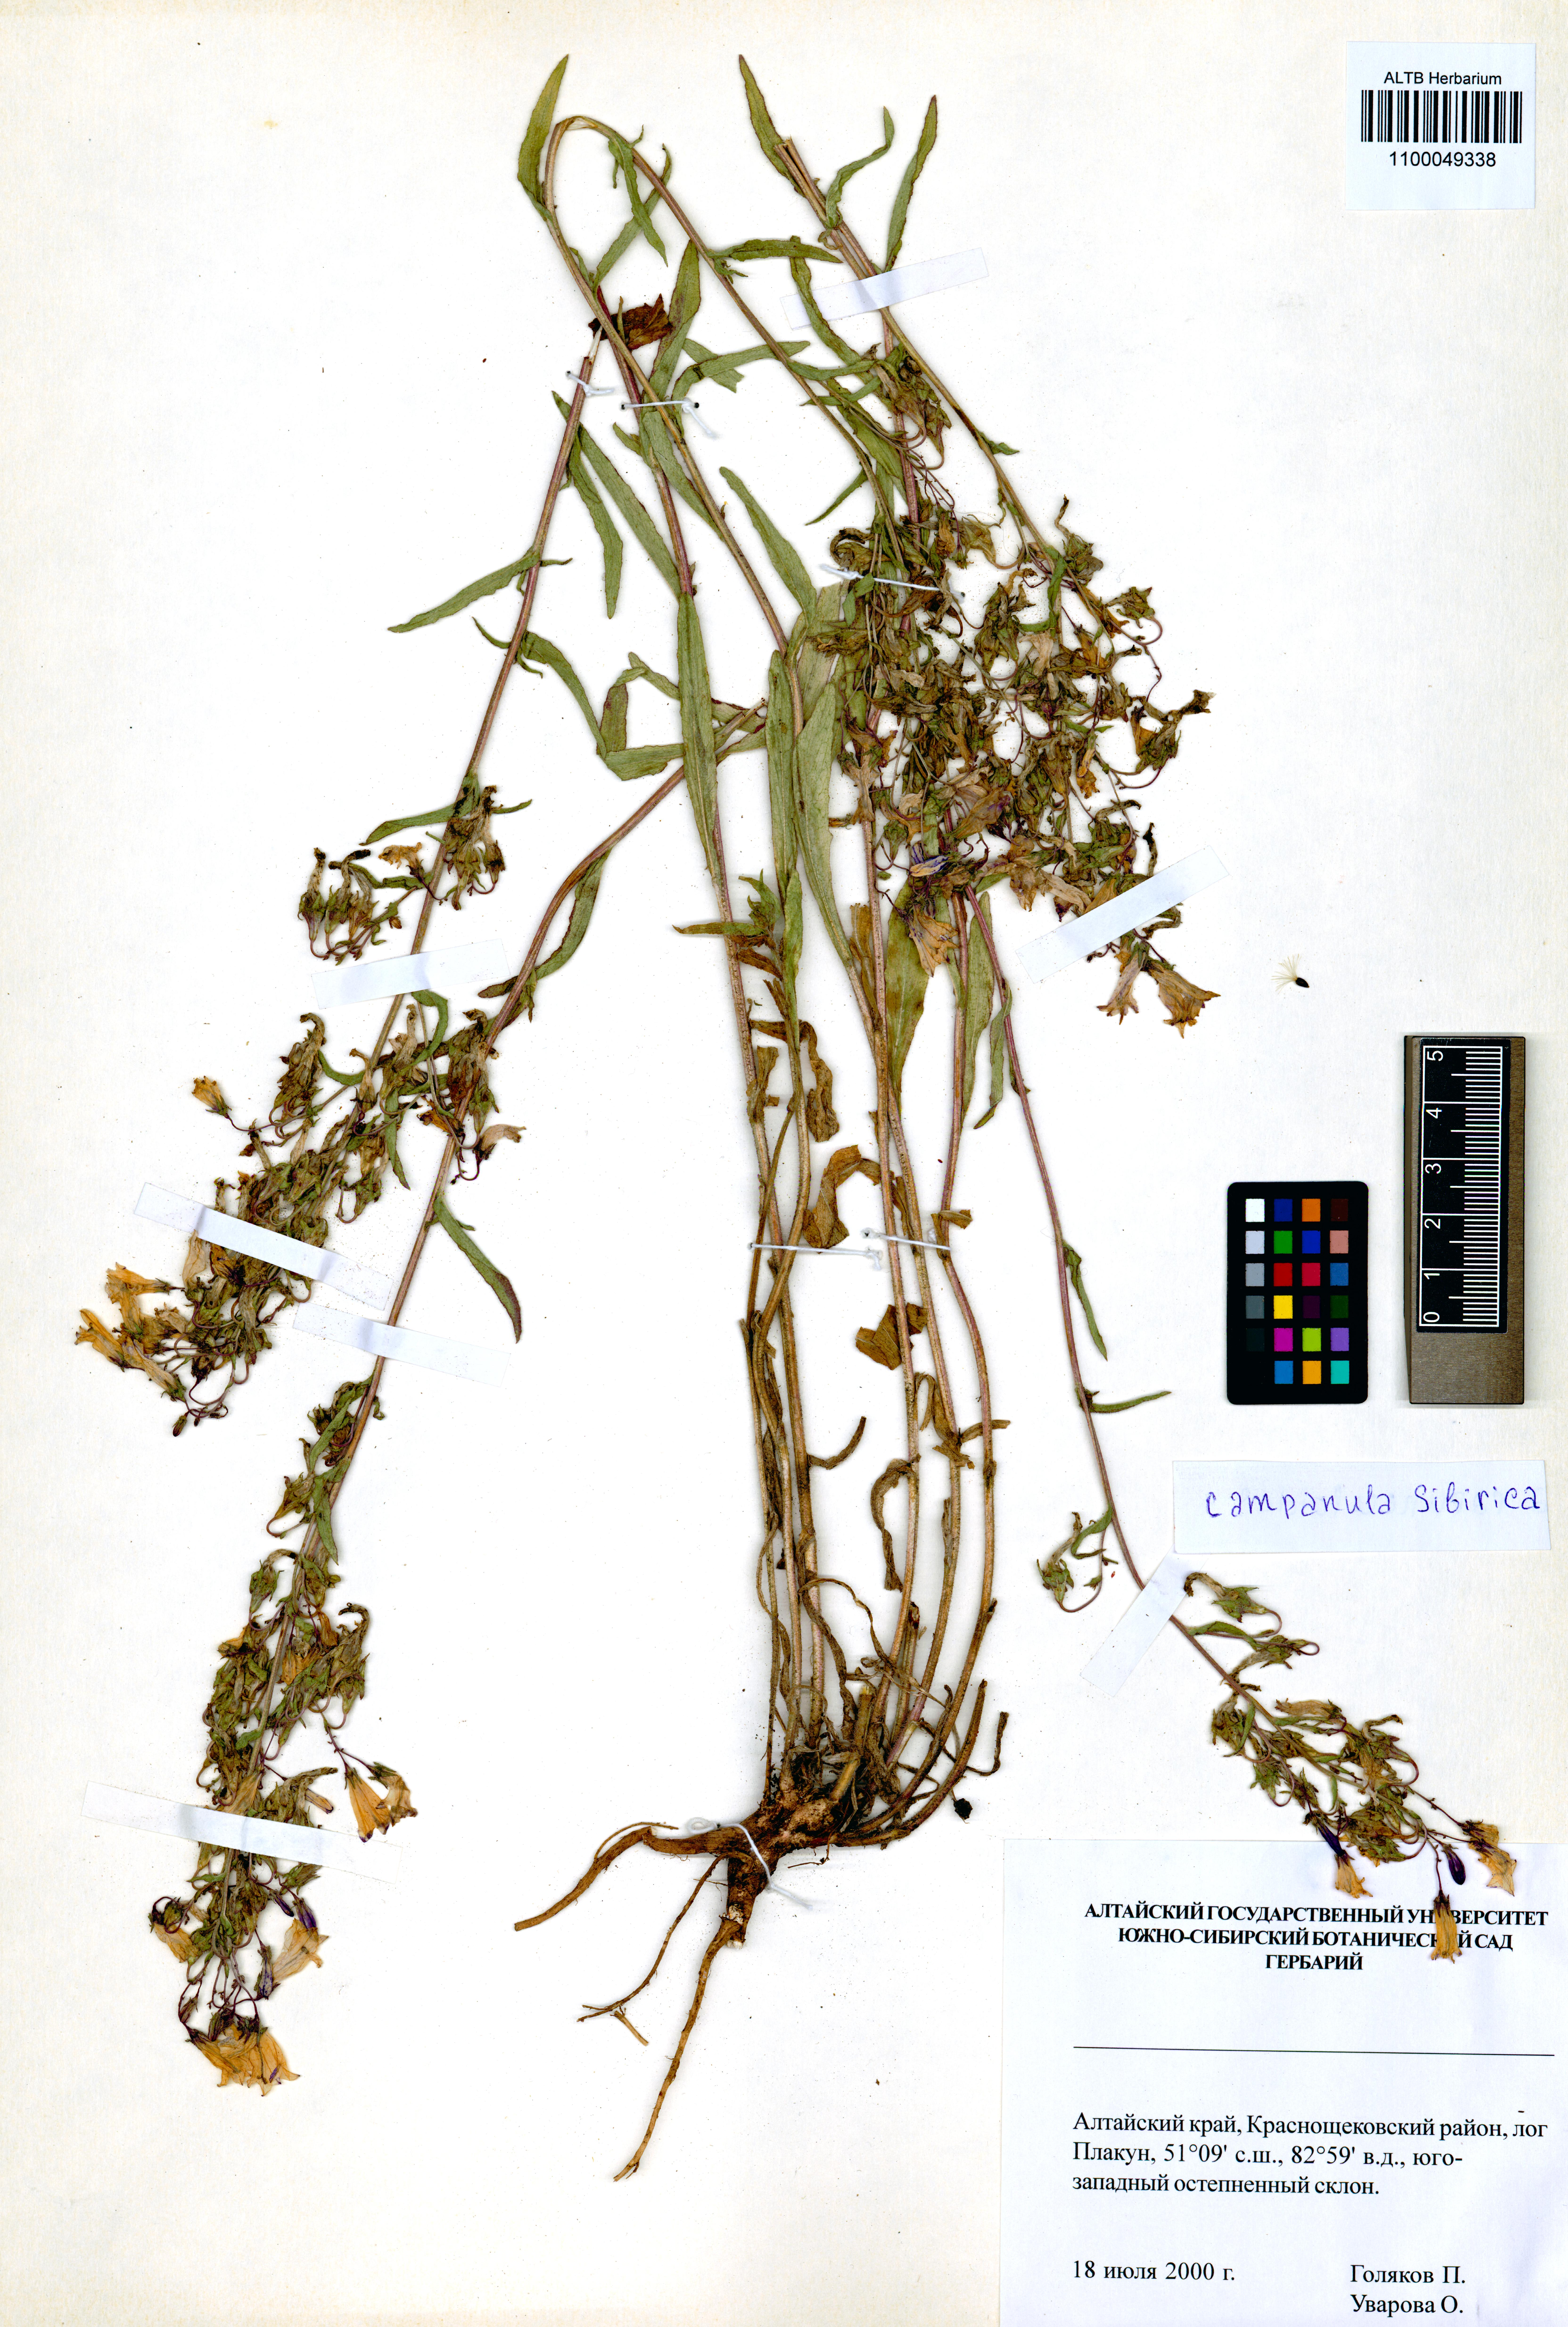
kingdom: Plantae
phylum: Tracheophyta
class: Magnoliopsida
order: Asterales
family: Campanulaceae
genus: Campanula
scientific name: Campanula sibirica
